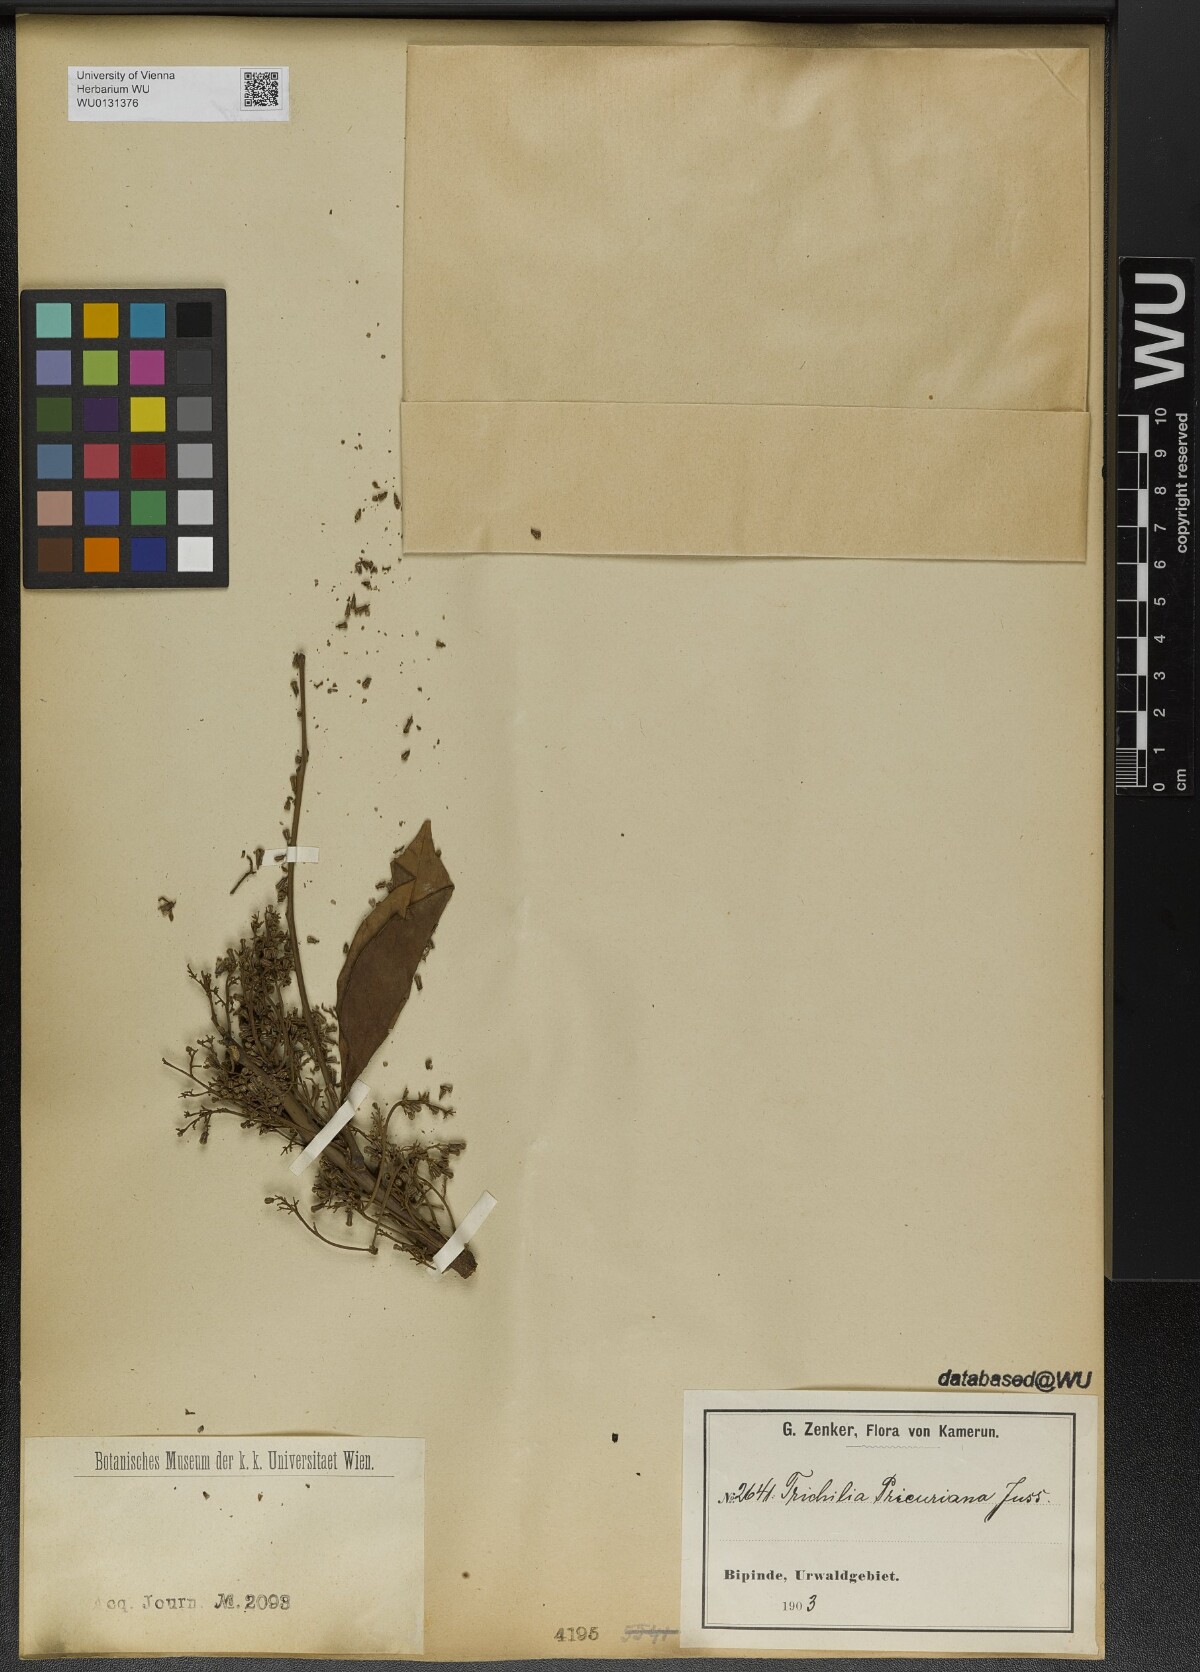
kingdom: Plantae
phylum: Tracheophyta
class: Magnoliopsida
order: Sapindales
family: Meliaceae
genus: Trichilia
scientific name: Trichilia prieuriana
